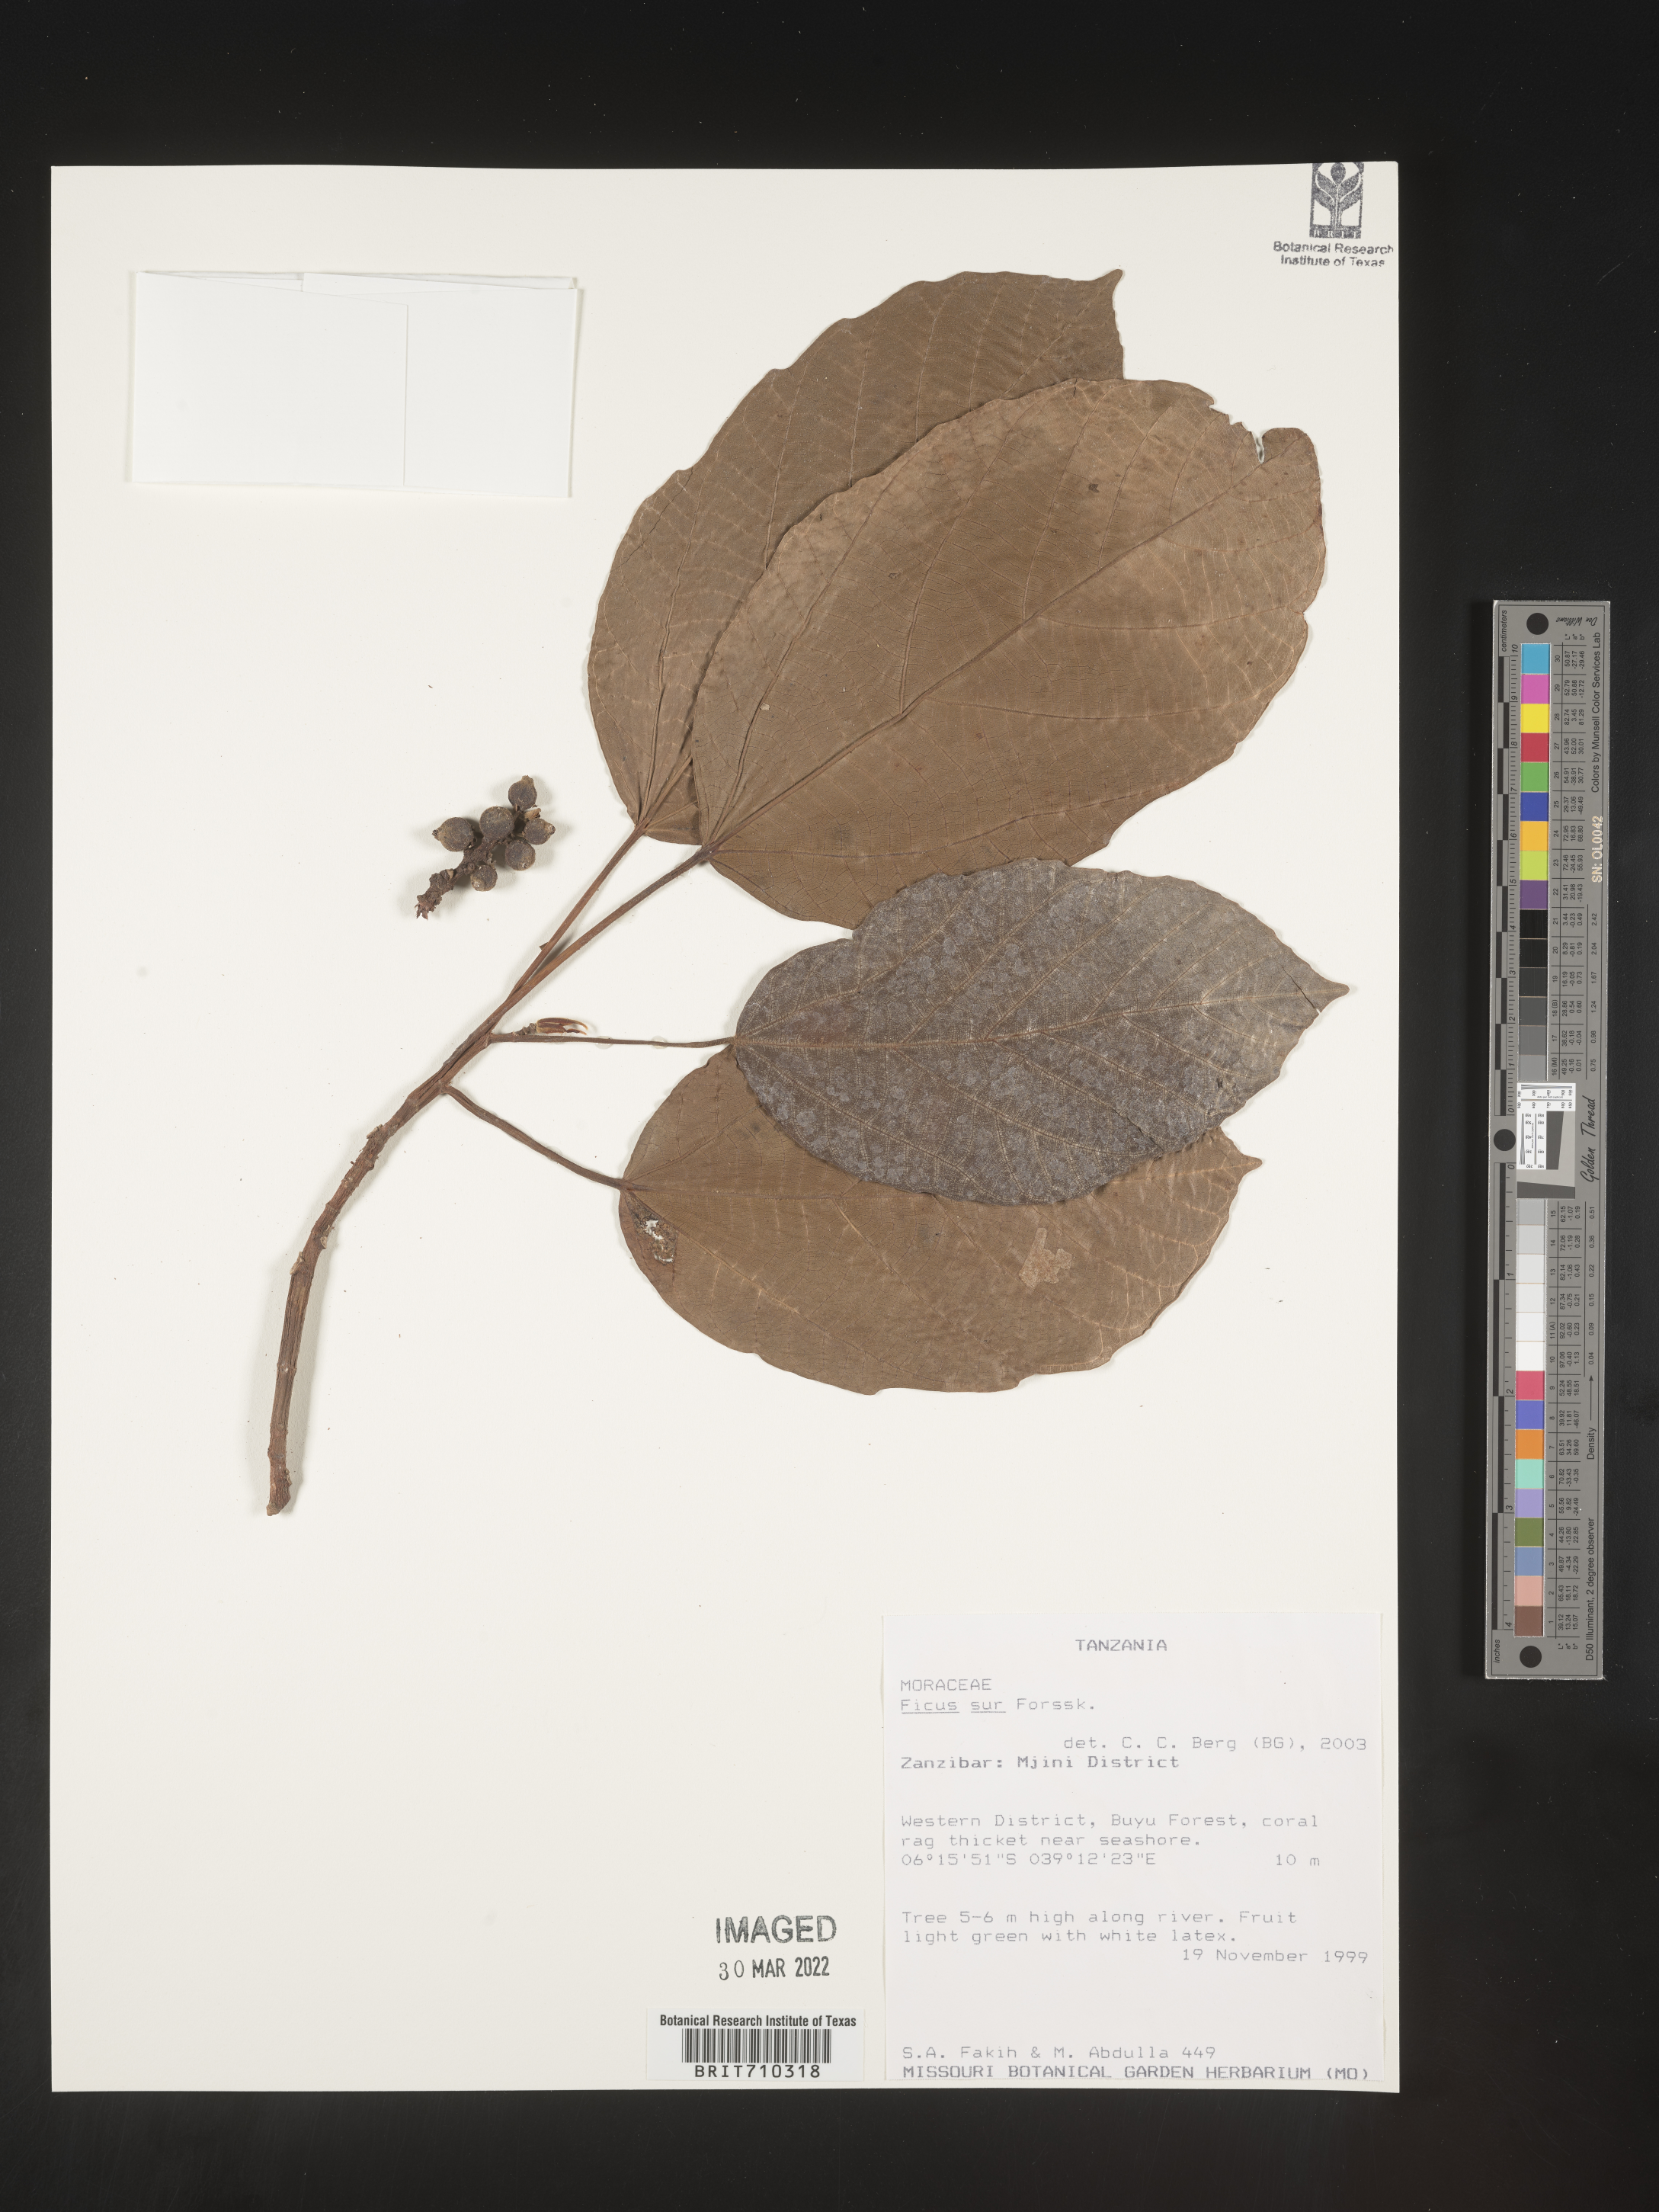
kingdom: Plantae
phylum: Tracheophyta
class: Magnoliopsida
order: Rosales
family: Moraceae
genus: Ficus
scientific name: Ficus
